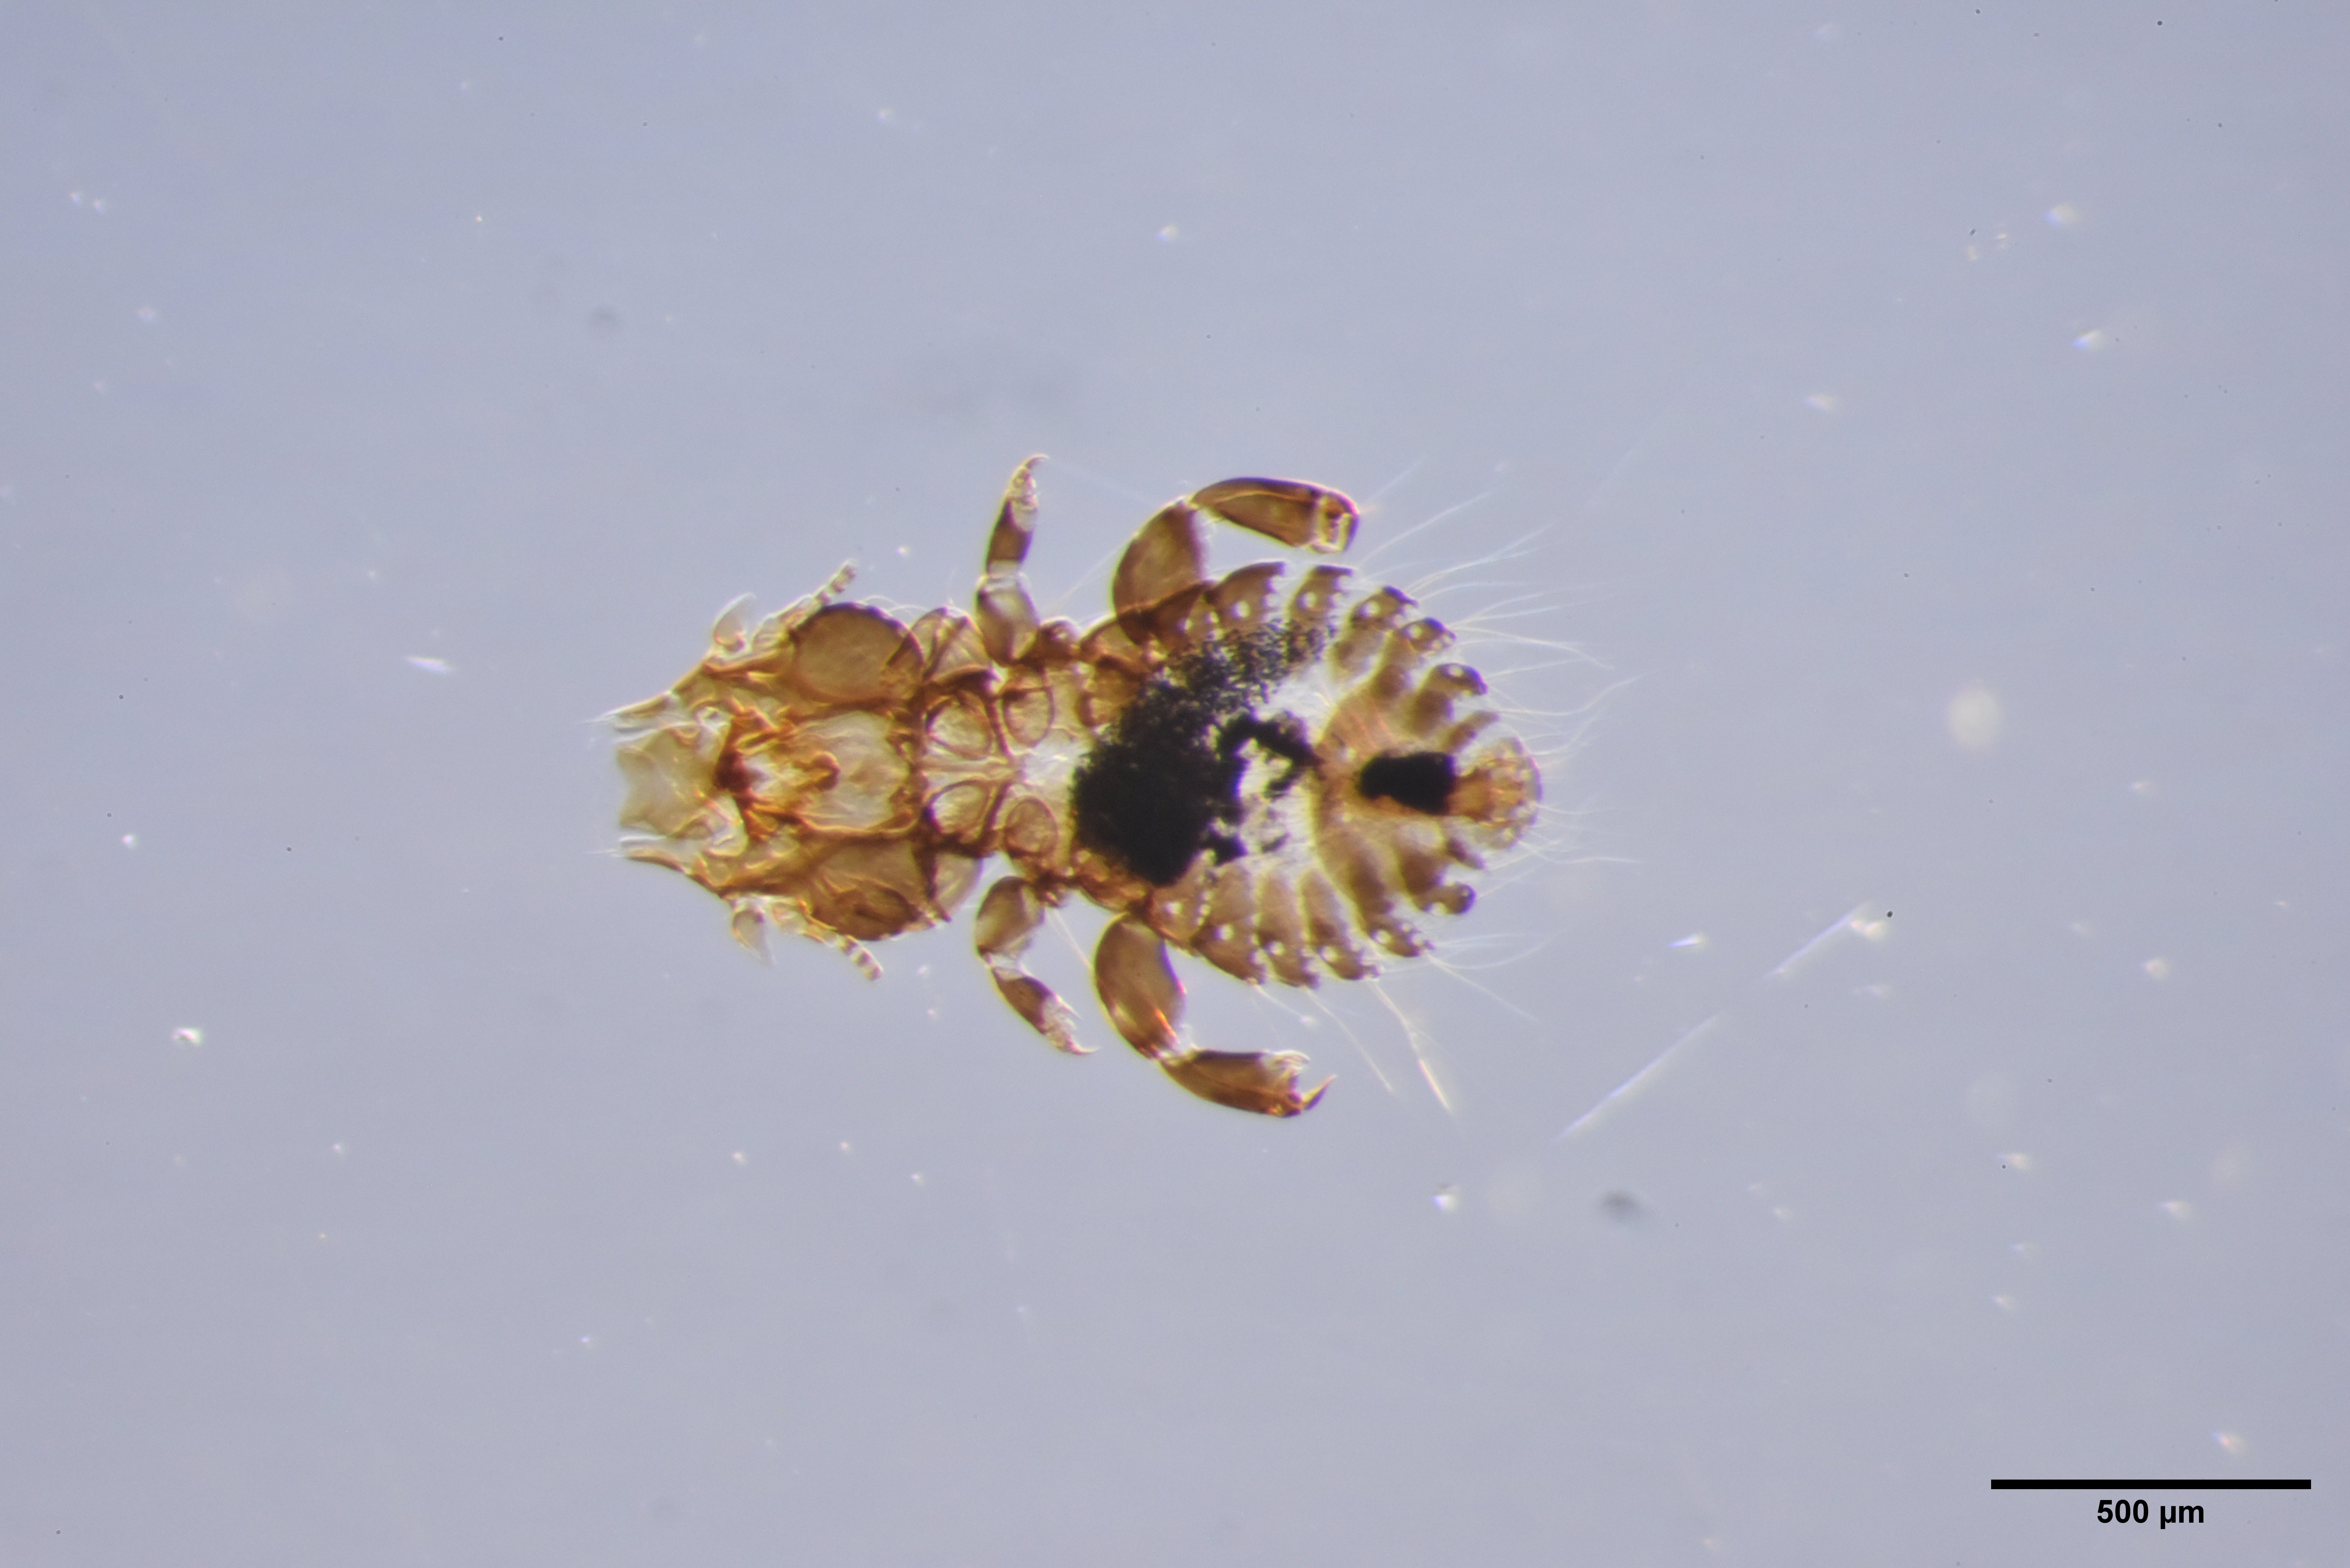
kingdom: Animalia
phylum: Arthropoda
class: Insecta
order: Psocodea
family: Philopteridae
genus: Philopterus
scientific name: Philopterus fringillae
